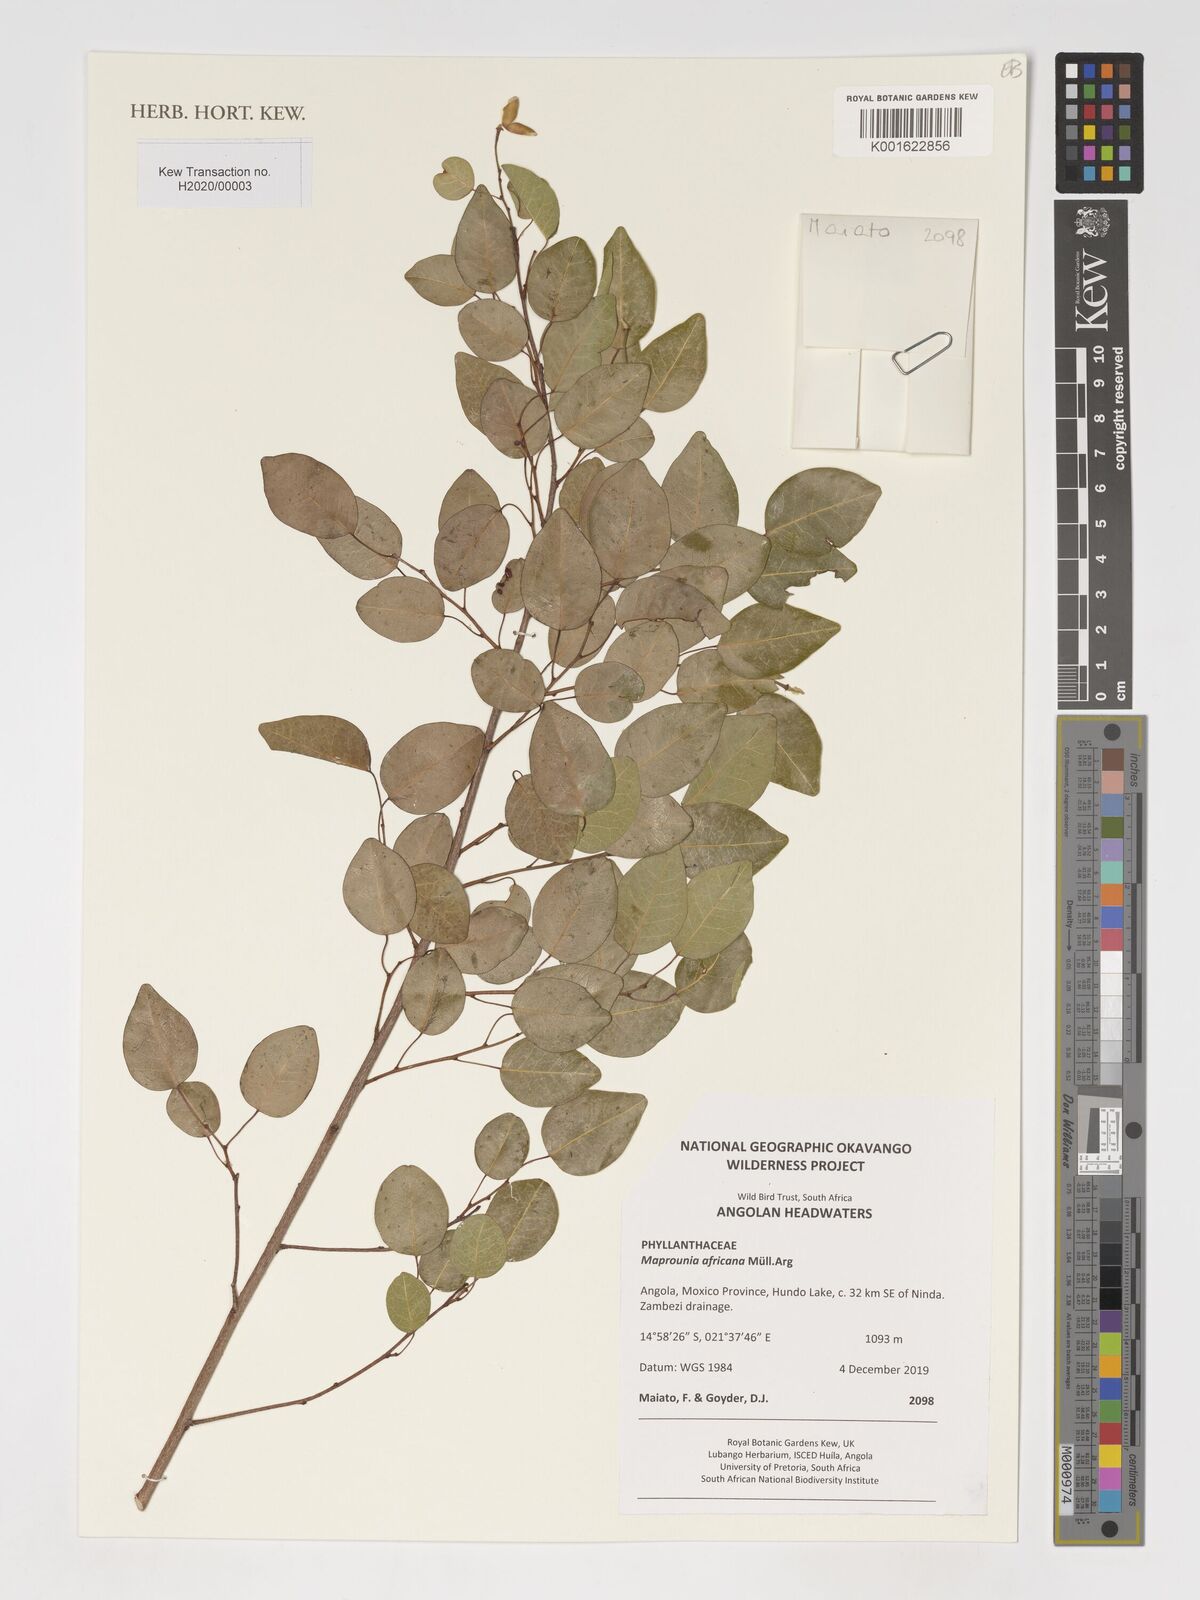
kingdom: Plantae
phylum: Tracheophyta
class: Magnoliopsida
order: Malpighiales
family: Euphorbiaceae
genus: Maprounea
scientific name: Maprounea africana
